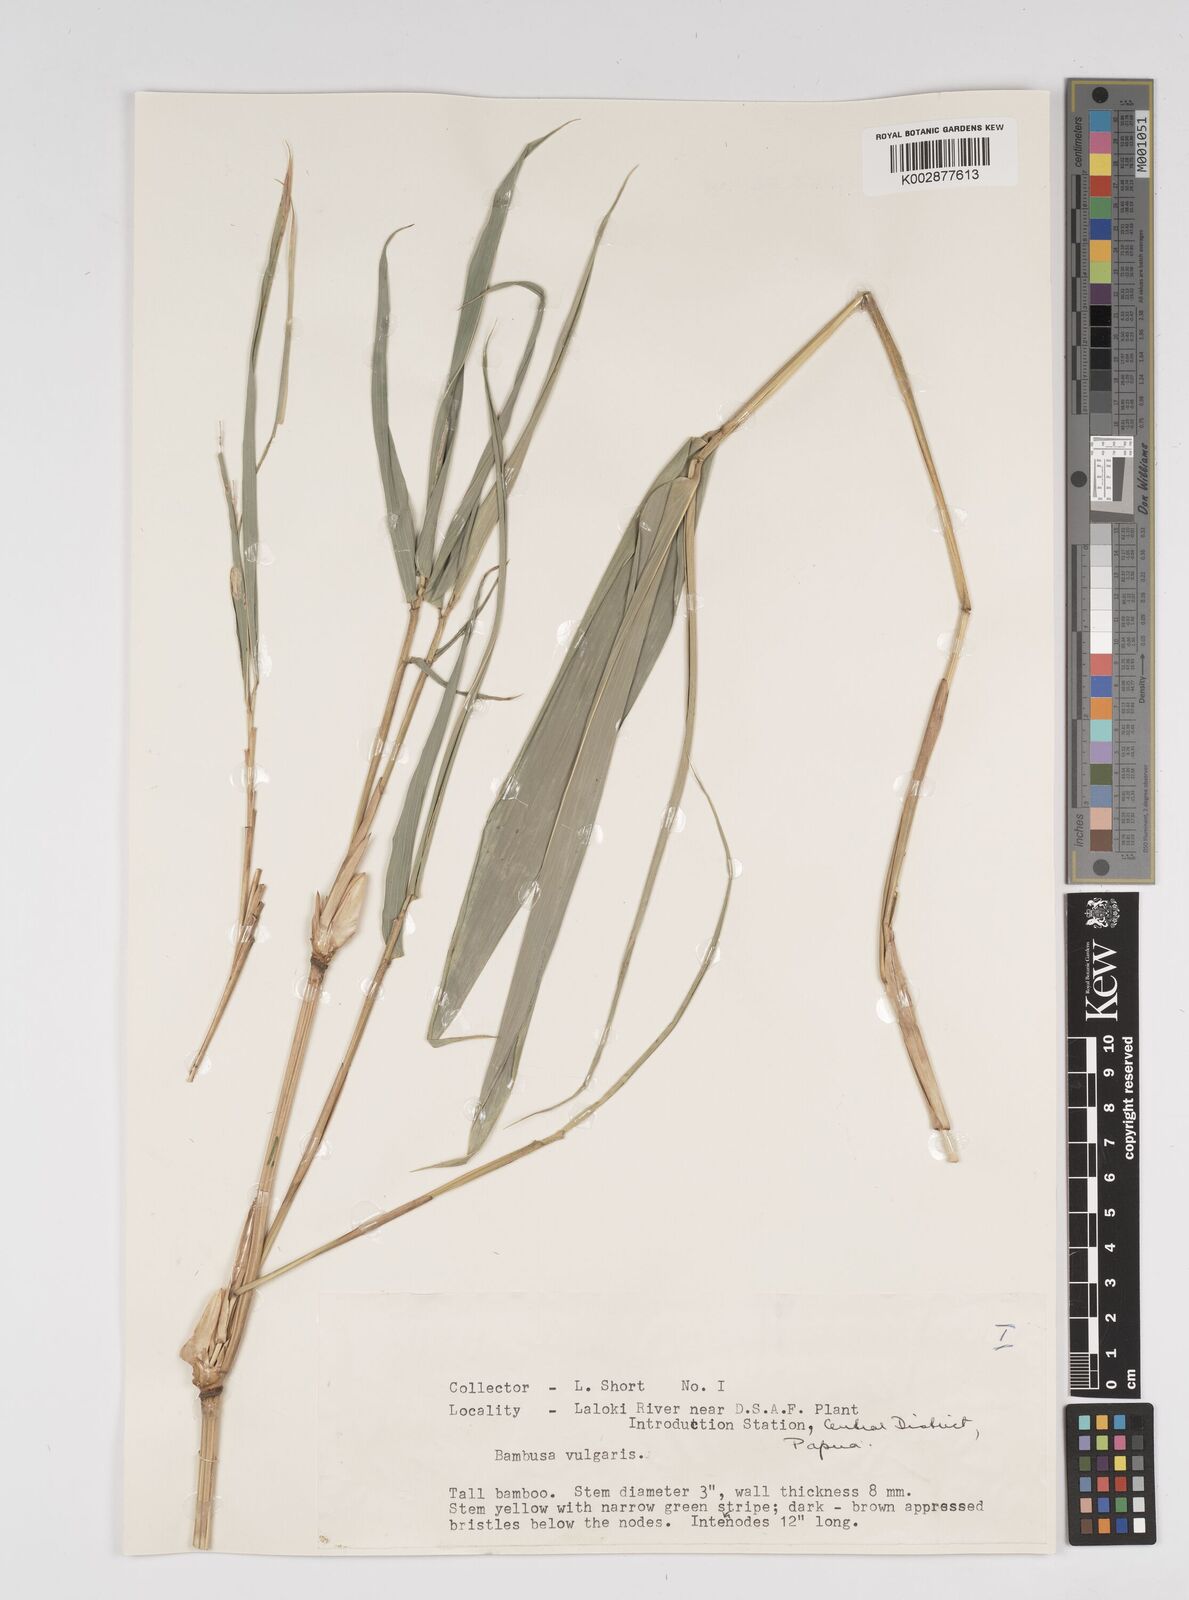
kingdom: Plantae
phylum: Tracheophyta
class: Liliopsida
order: Poales
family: Poaceae
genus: Bambusa
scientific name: Bambusa balcooa
